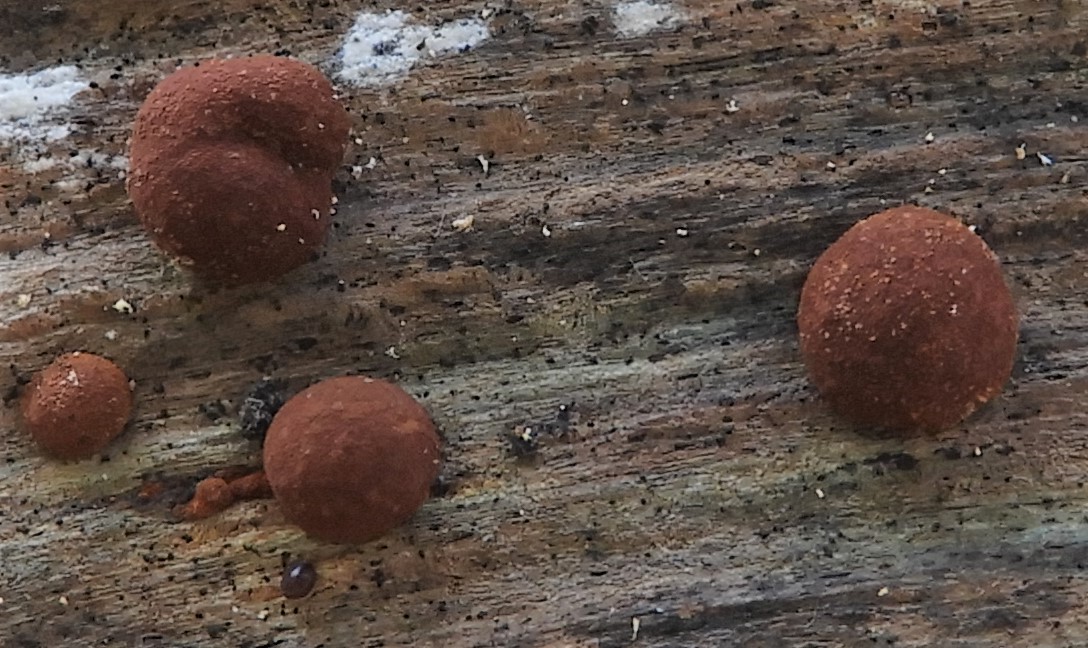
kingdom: Fungi
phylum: Ascomycota
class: Sordariomycetes
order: Xylariales
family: Hypoxylaceae
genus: Hypoxylon
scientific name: Hypoxylon howeanum
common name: halvkugleformet kulbær
